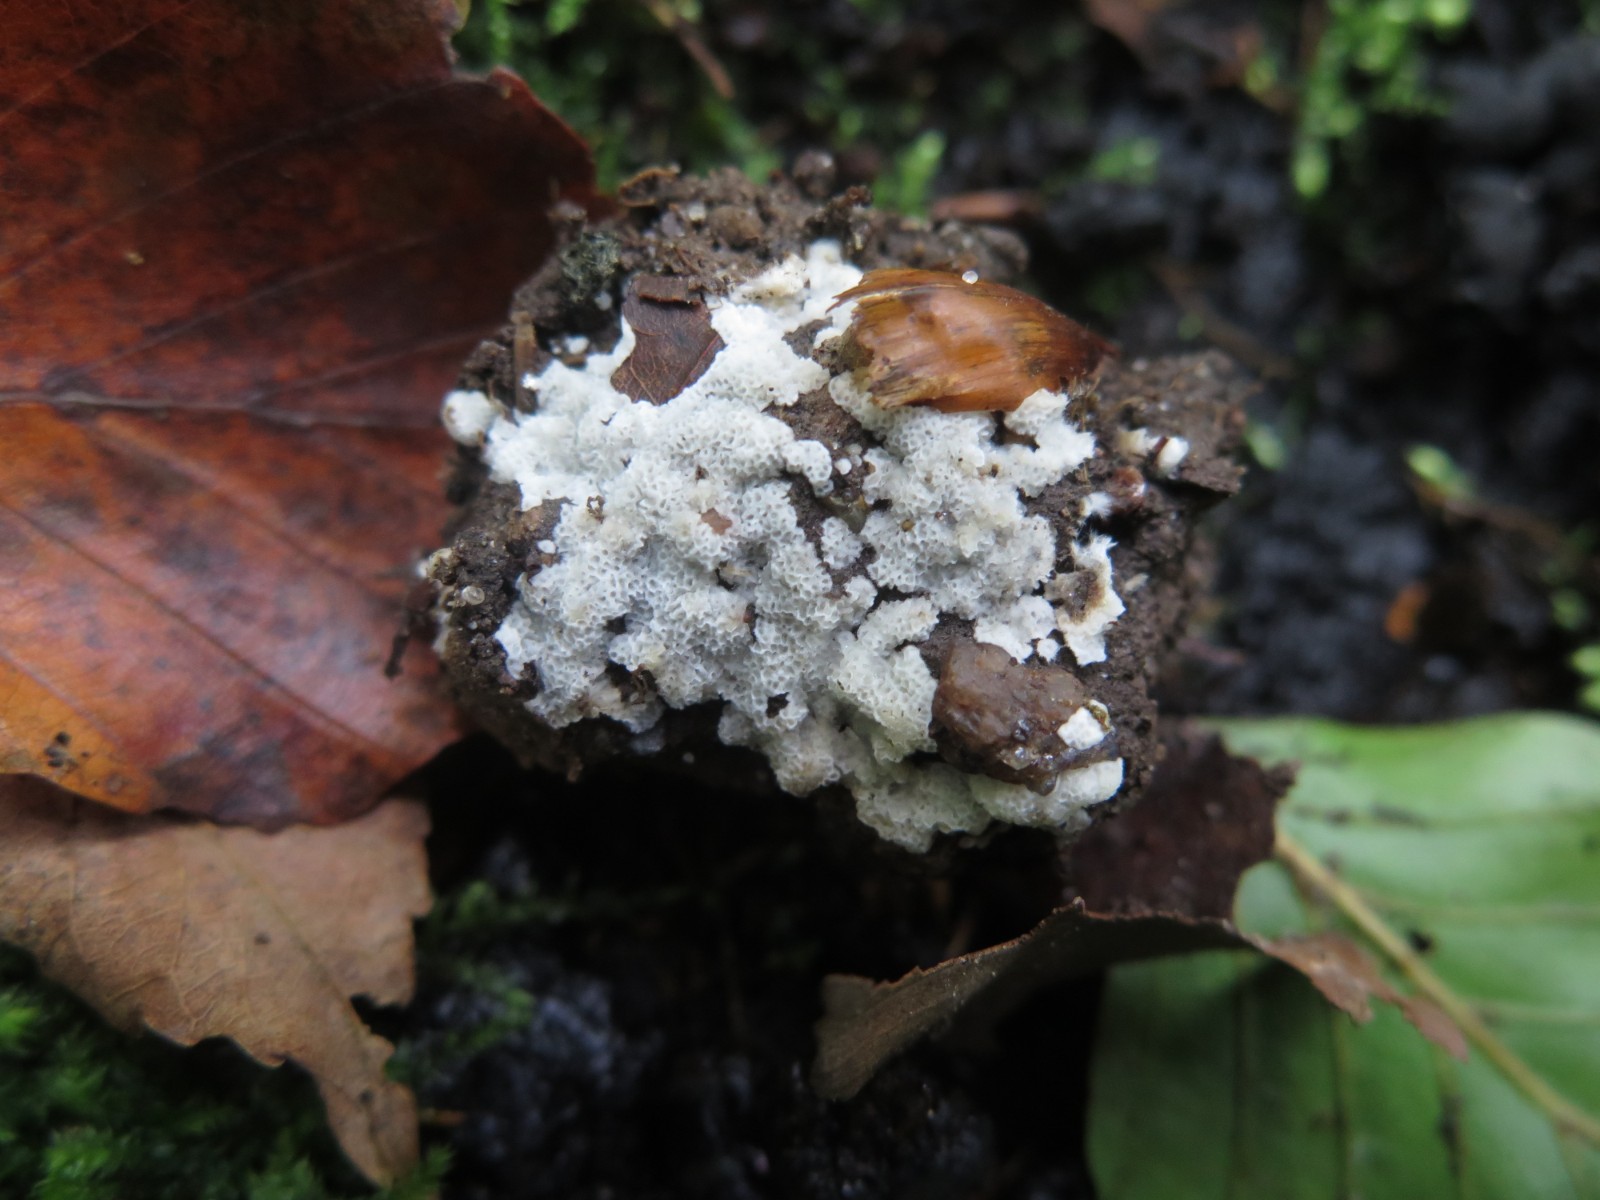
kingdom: Fungi
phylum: Basidiomycota
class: Agaricomycetes
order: Polyporales
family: Meripilaceae
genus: Rigidoporus
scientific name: Rigidoporus sanguinolentus
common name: blod-skorpeporesvamp
